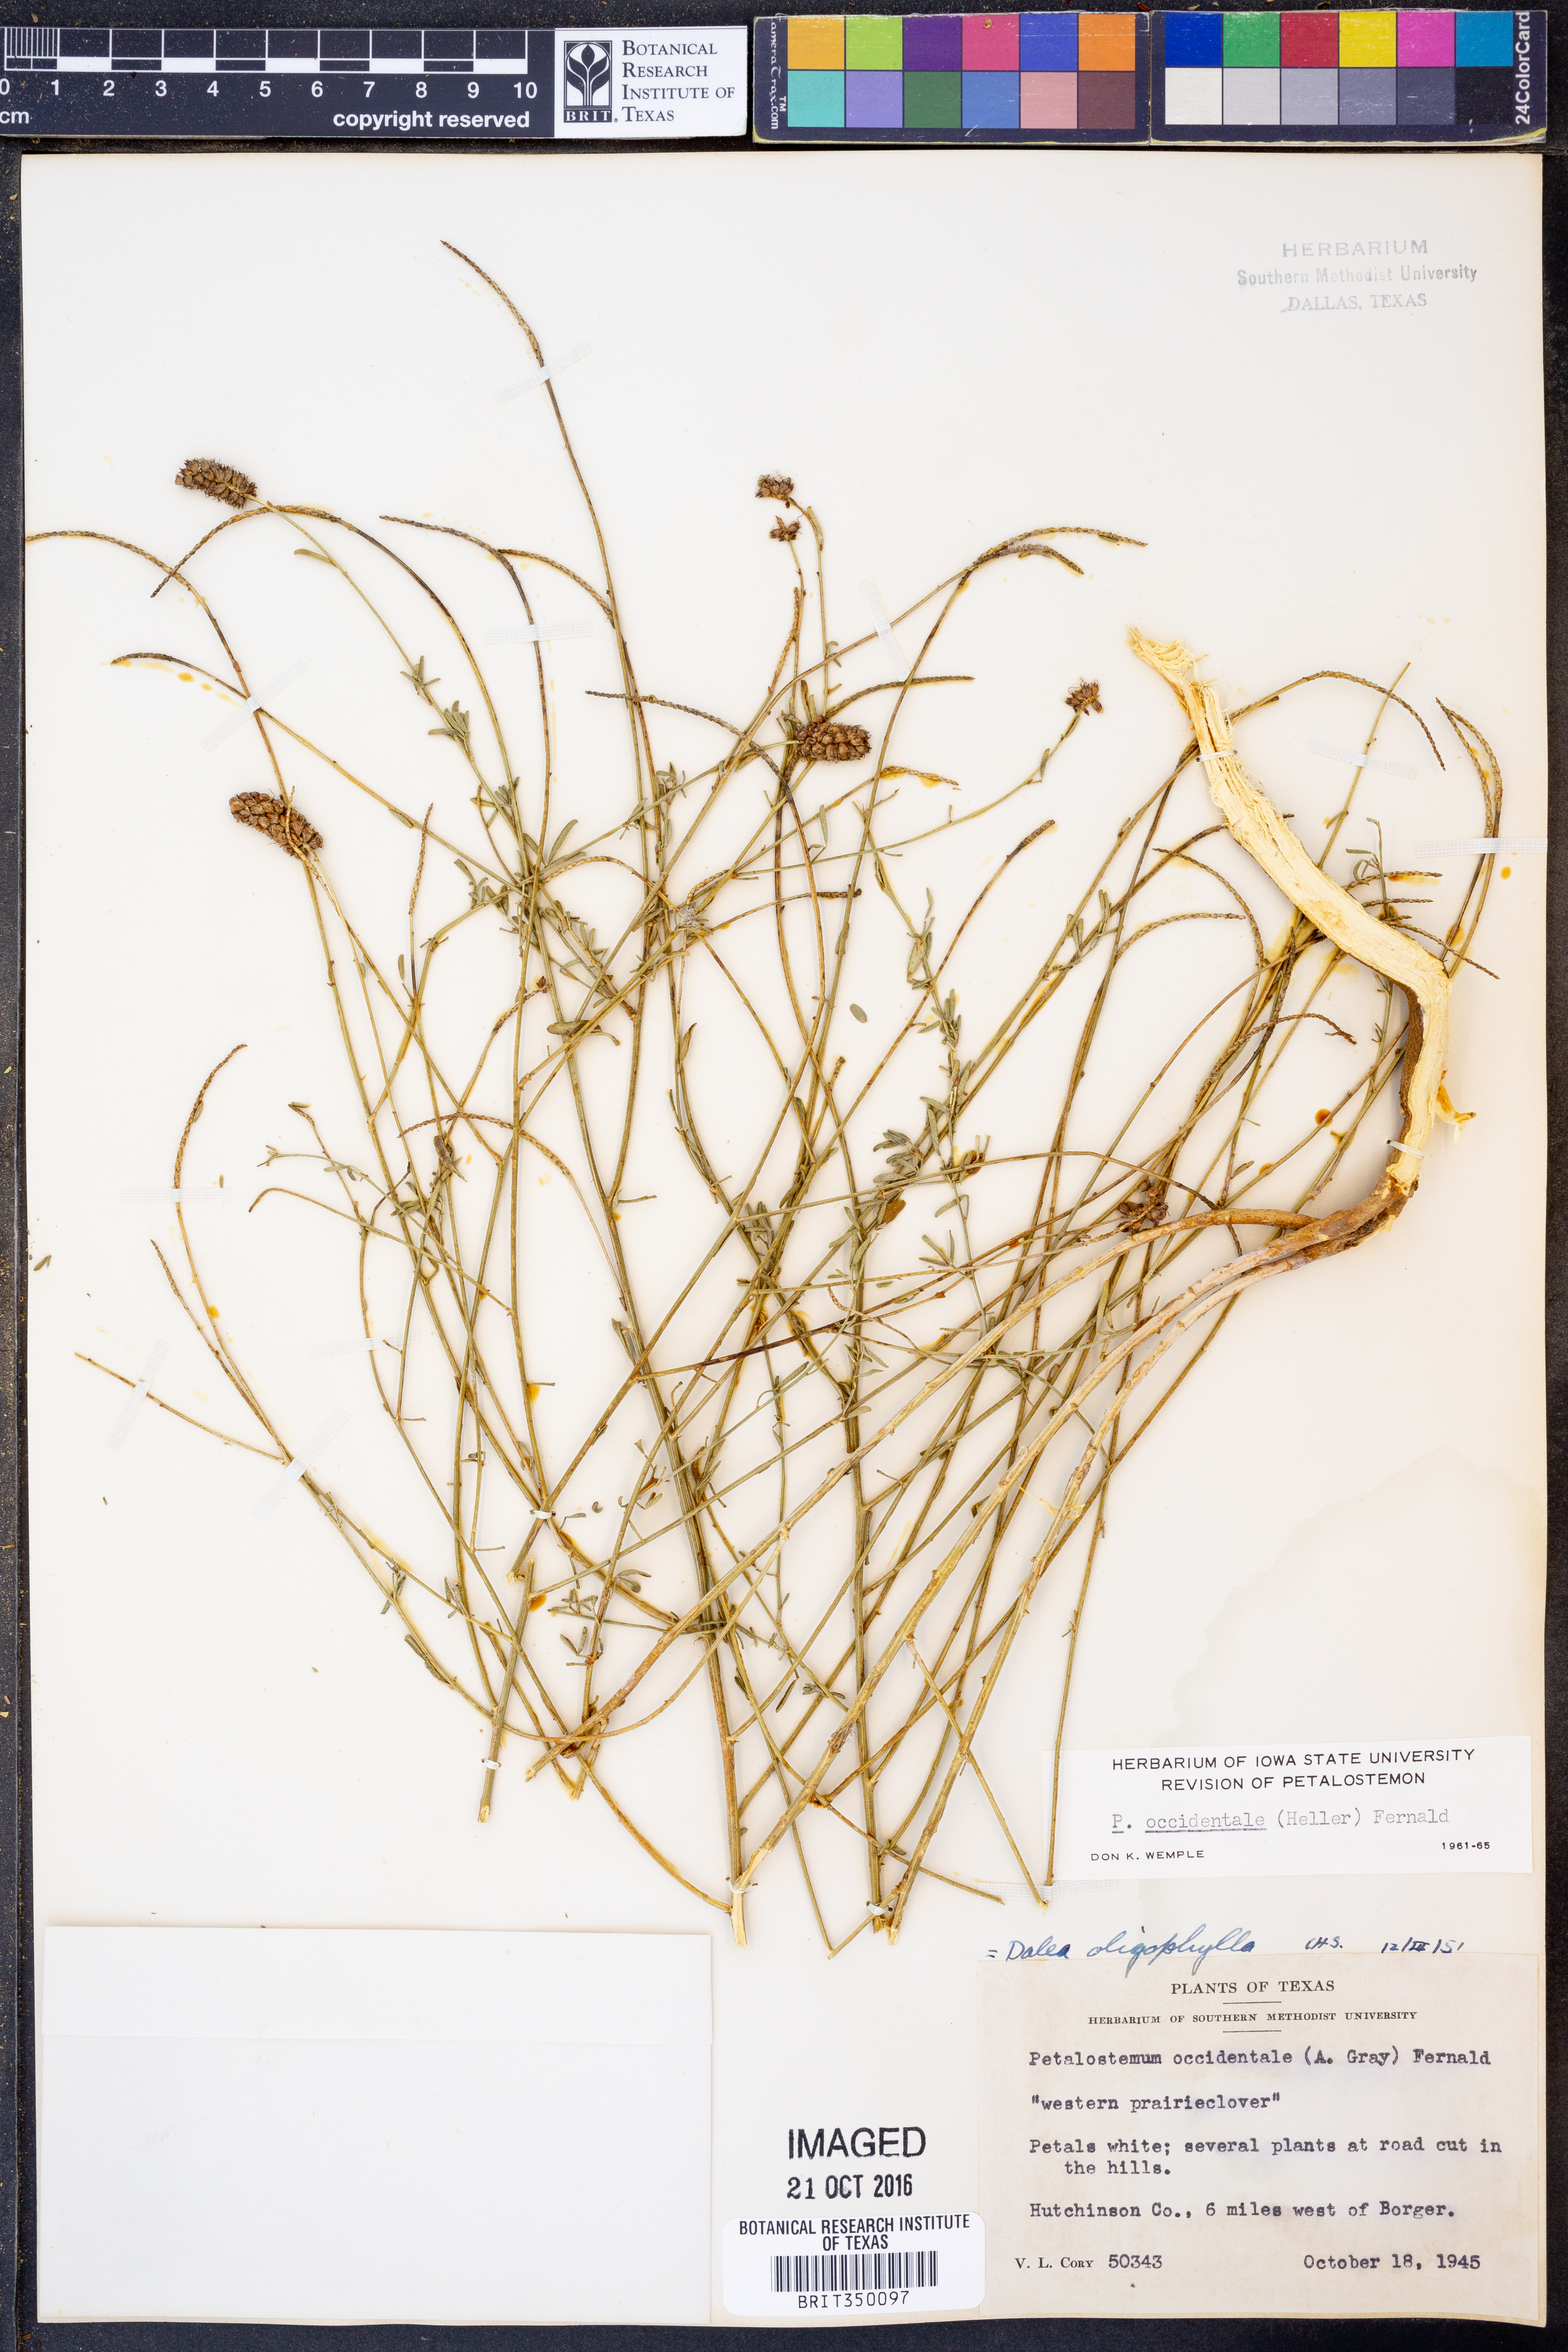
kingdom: Plantae
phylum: Tracheophyta
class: Magnoliopsida
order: Fabales
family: Fabaceae
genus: Dalea
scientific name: Dalea candida
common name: White prairie-clover
